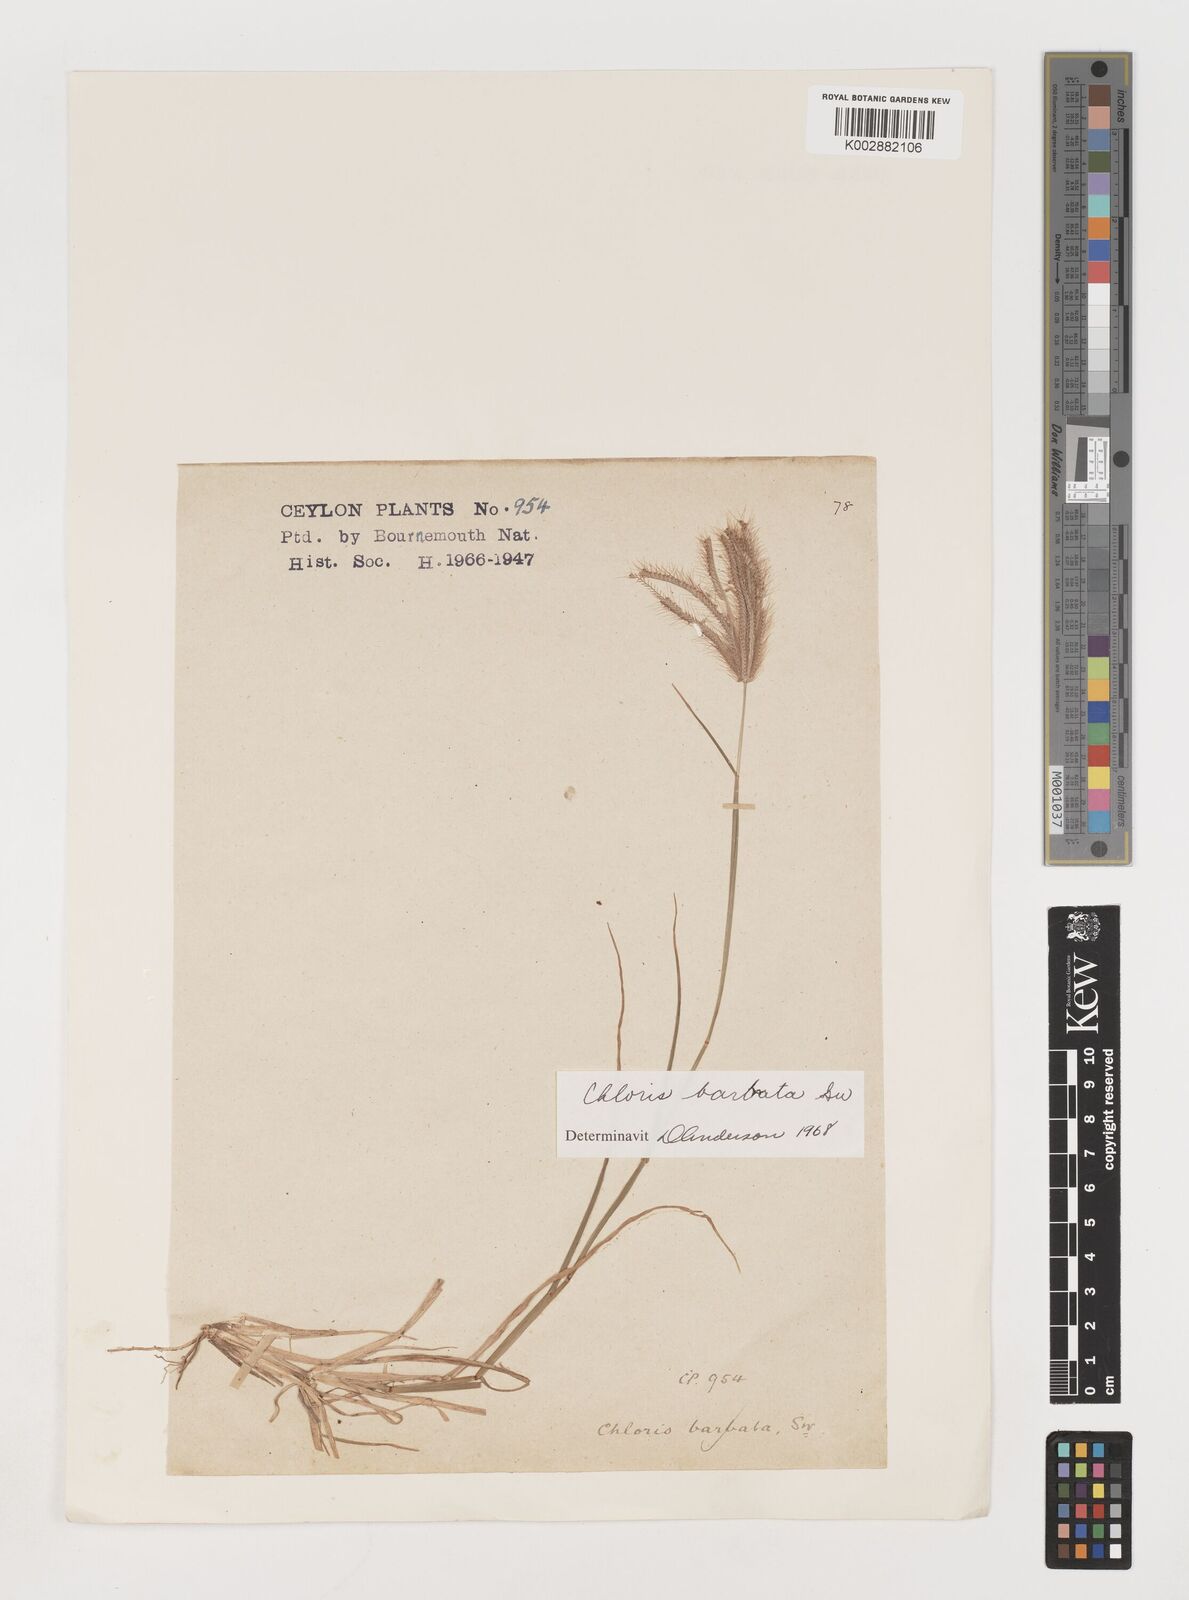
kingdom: Plantae
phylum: Tracheophyta
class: Liliopsida
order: Poales
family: Poaceae
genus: Chloris
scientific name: Chloris barbata
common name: Swollen fingergrass
